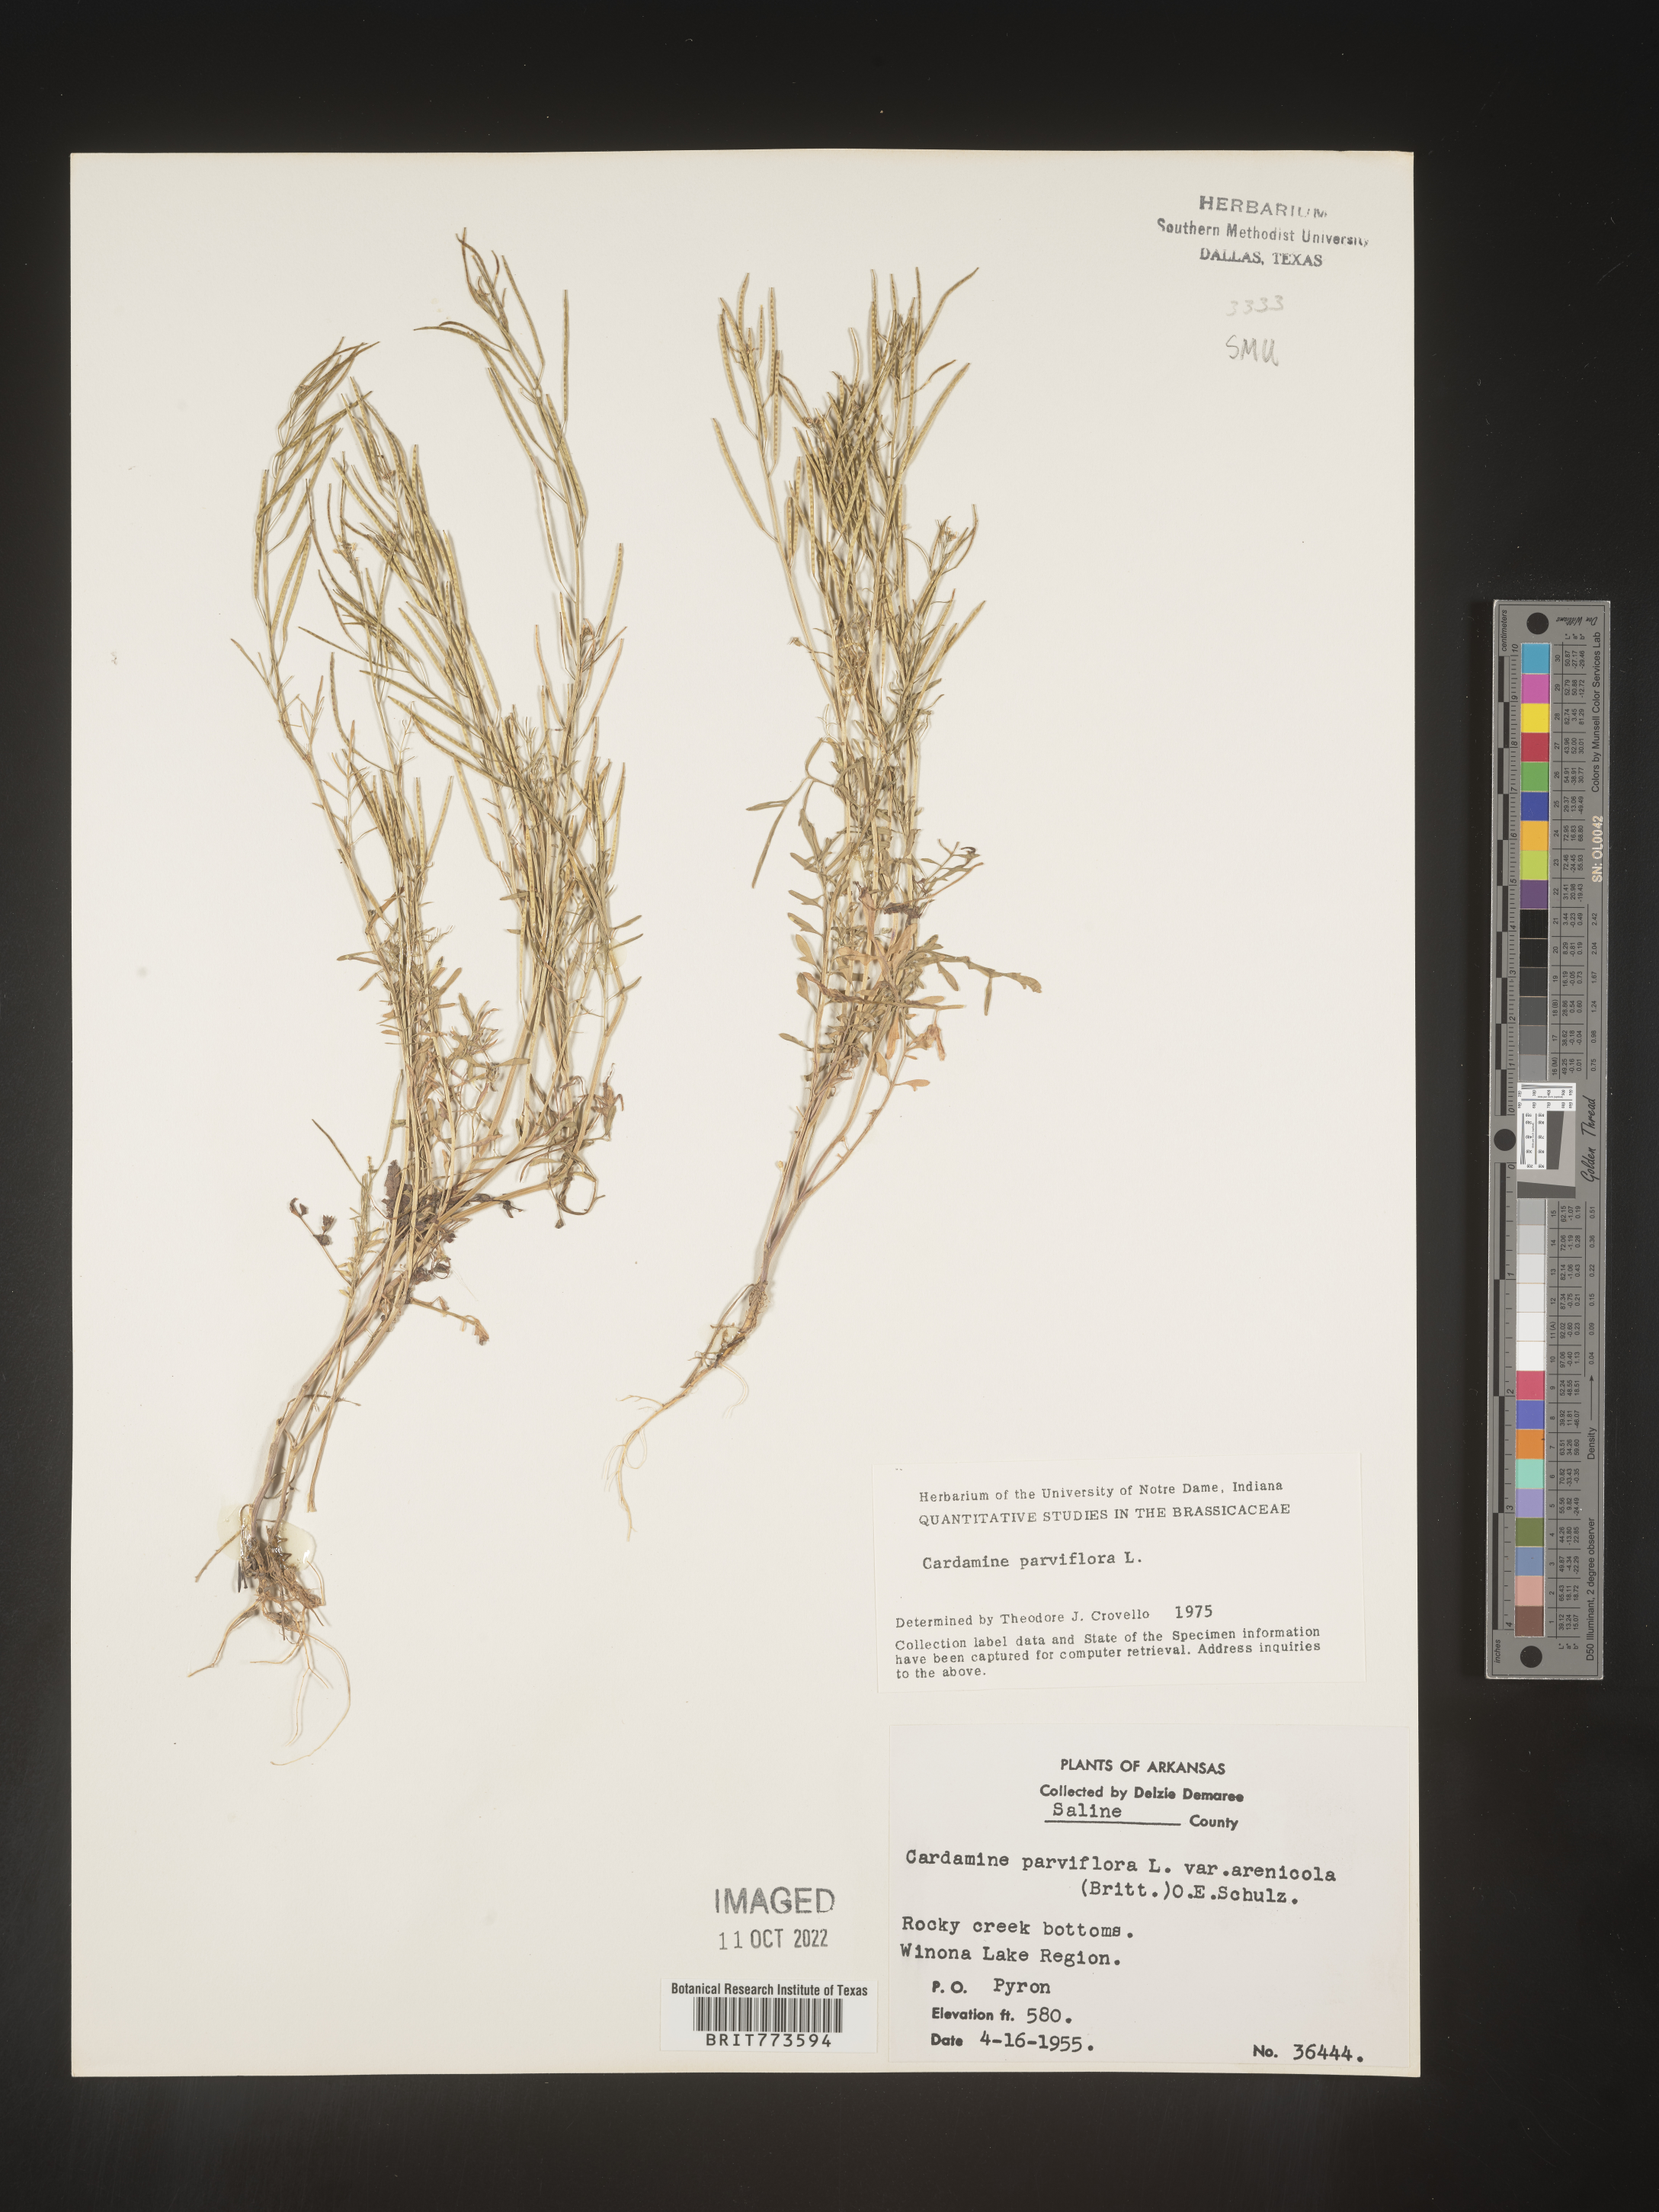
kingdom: Plantae
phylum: Tracheophyta
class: Magnoliopsida
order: Brassicales
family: Brassicaceae
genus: Cardamine
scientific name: Cardamine parviflora
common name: Sand bittercress
